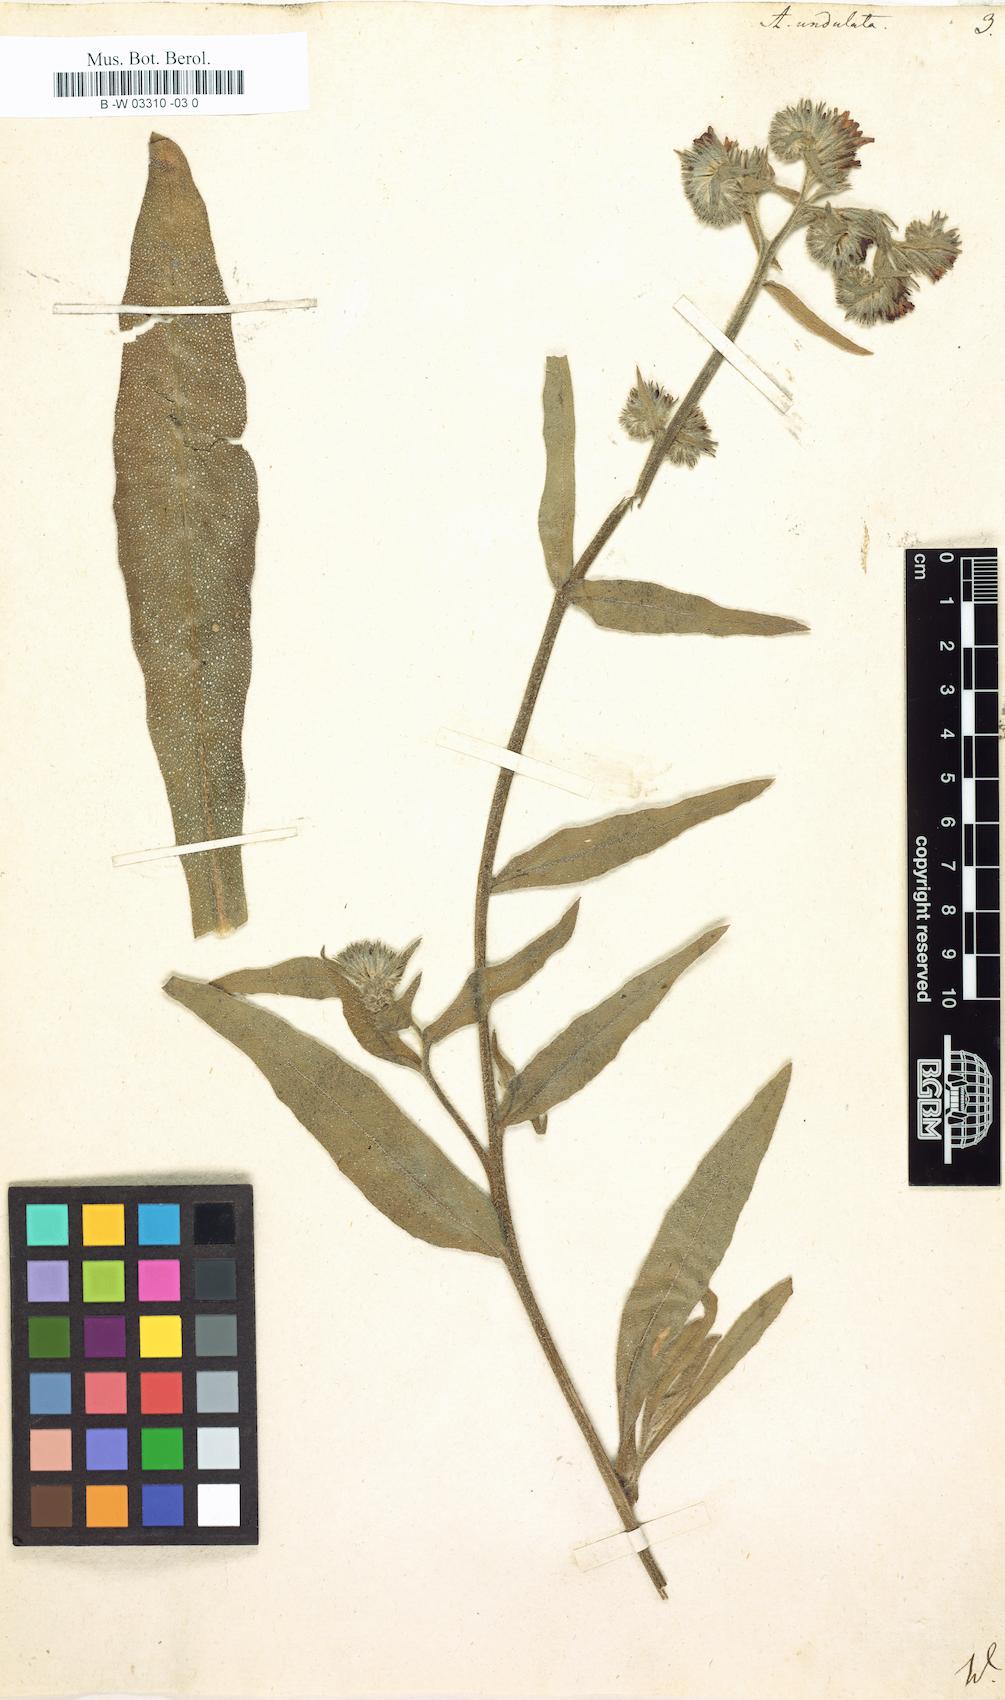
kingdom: Plantae
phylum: Tracheophyta
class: Magnoliopsida
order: Boraginales
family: Boraginaceae
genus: Anchusa
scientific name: Anchusa undulata
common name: Undulate alkanet
